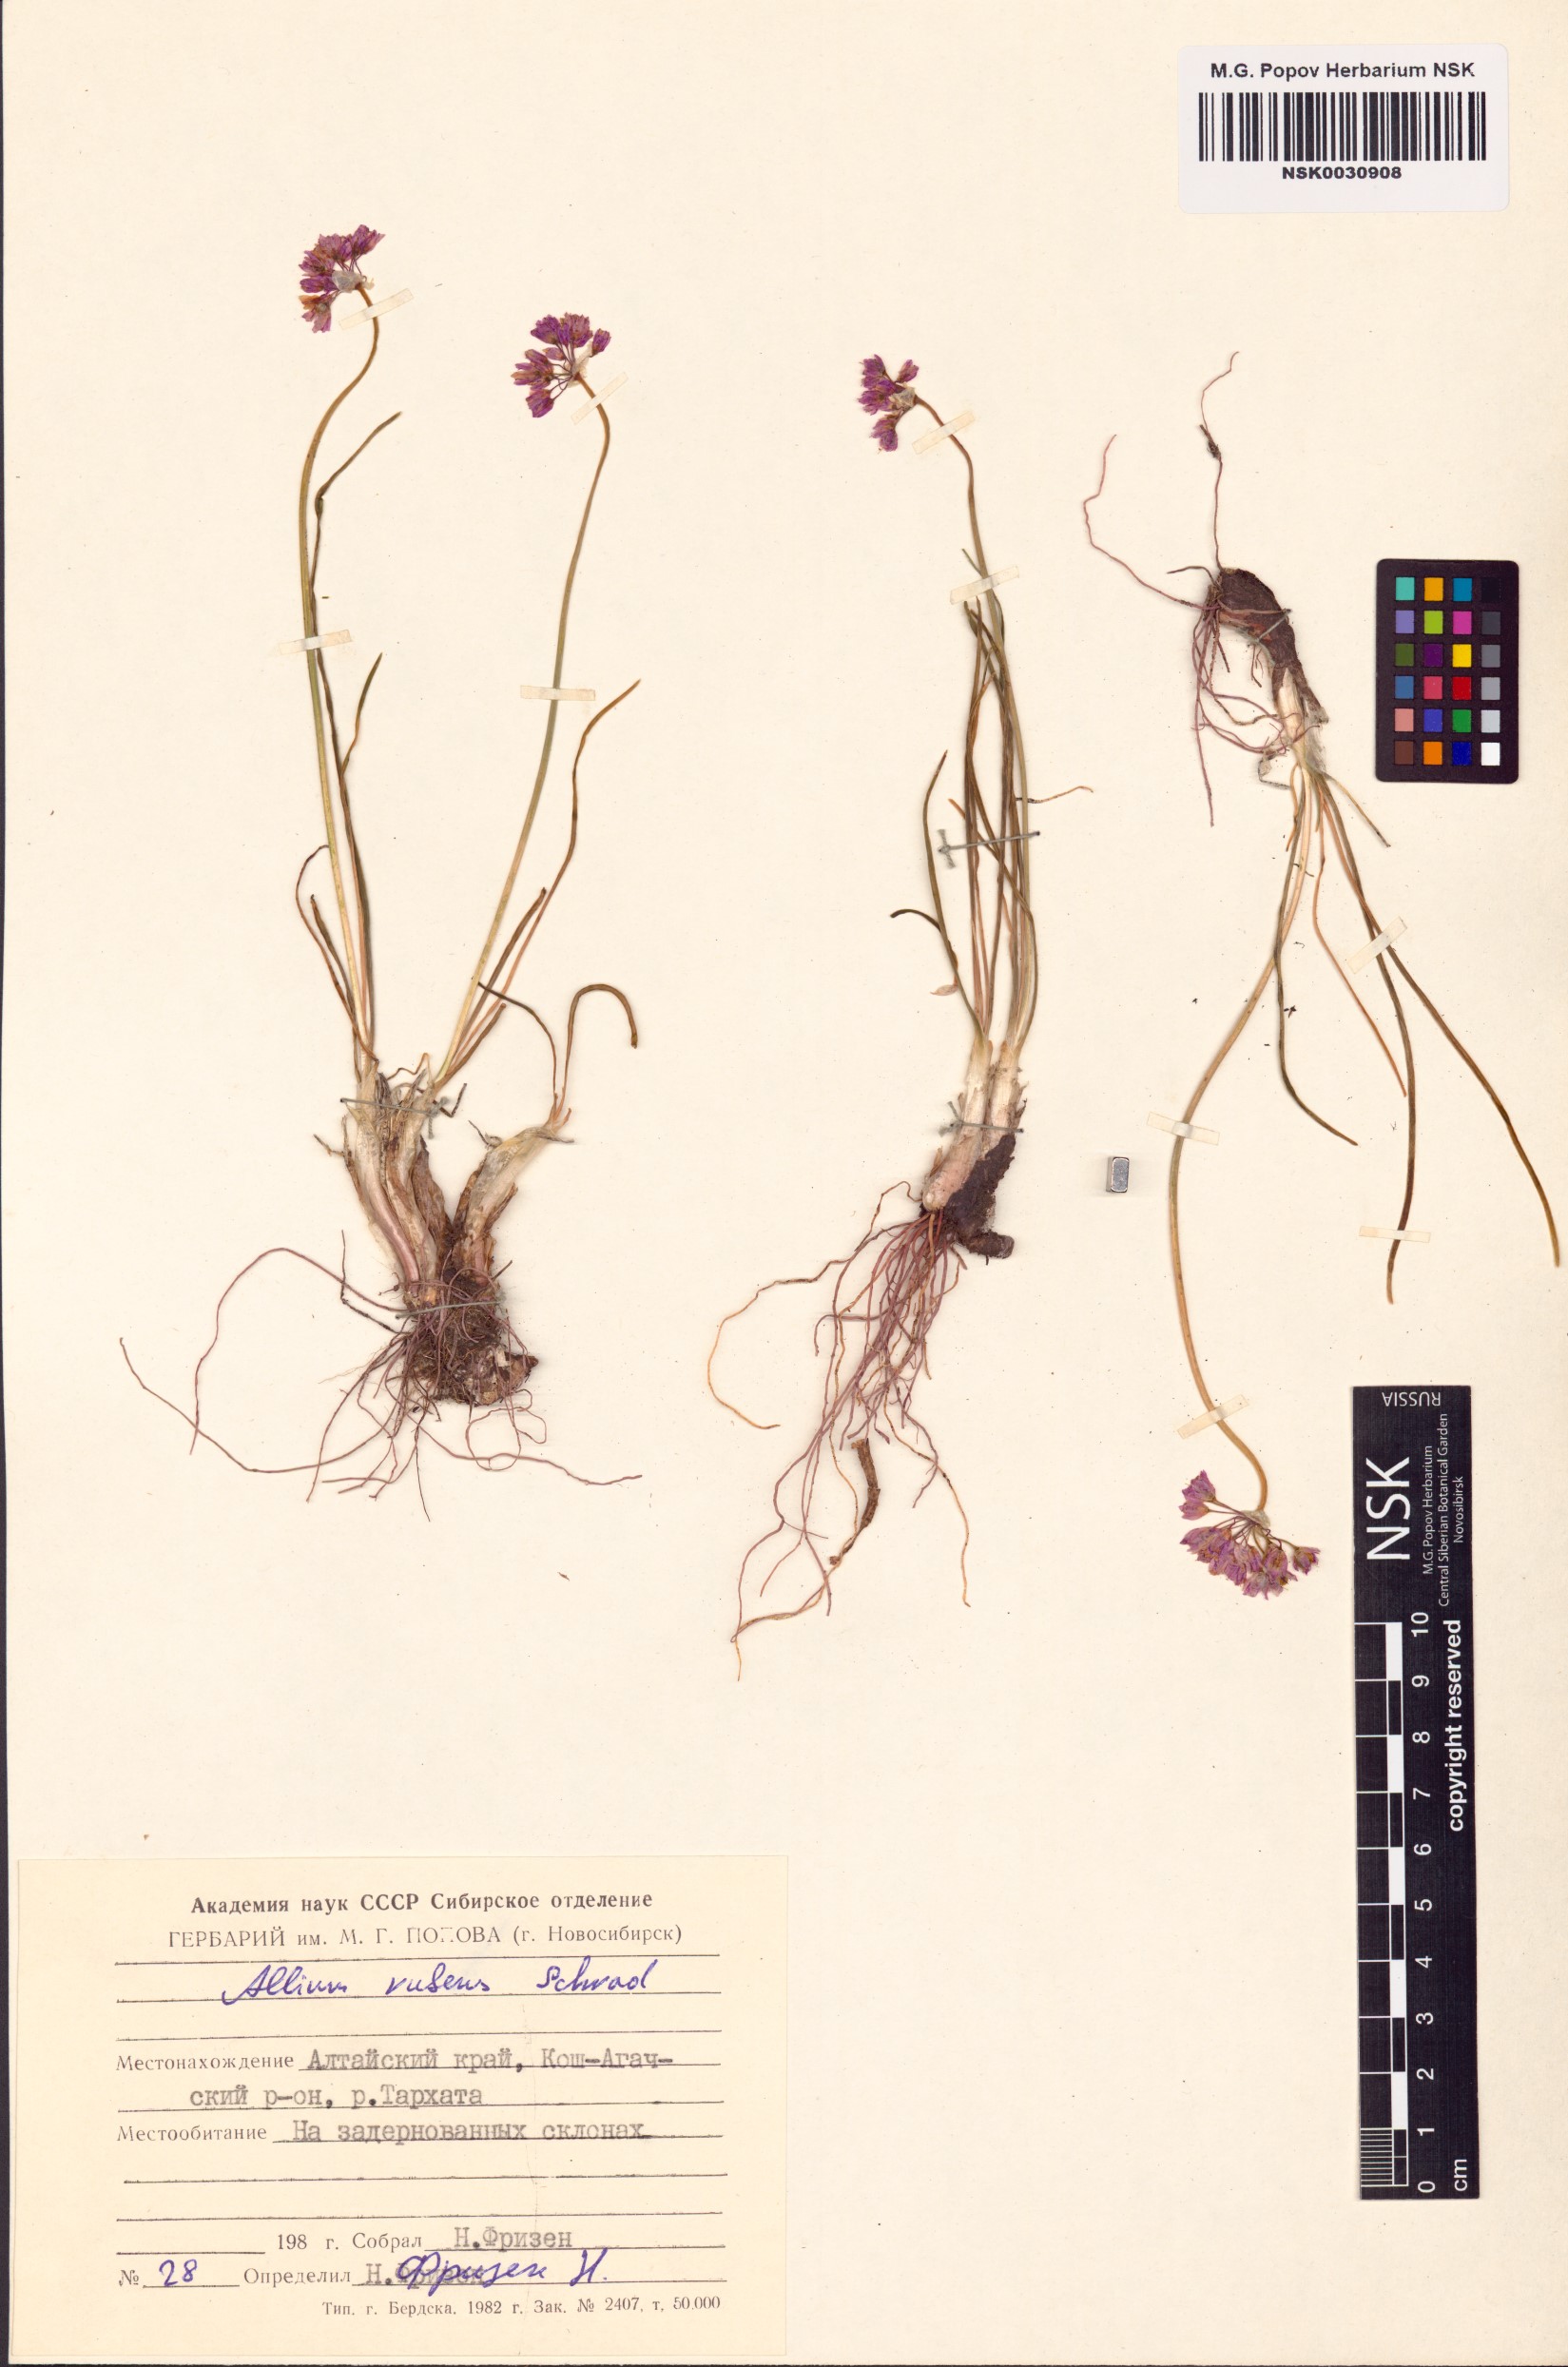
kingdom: Plantae
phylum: Tracheophyta
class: Liliopsida
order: Asparagales
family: Amaryllidaceae
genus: Allium
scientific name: Allium rubens
